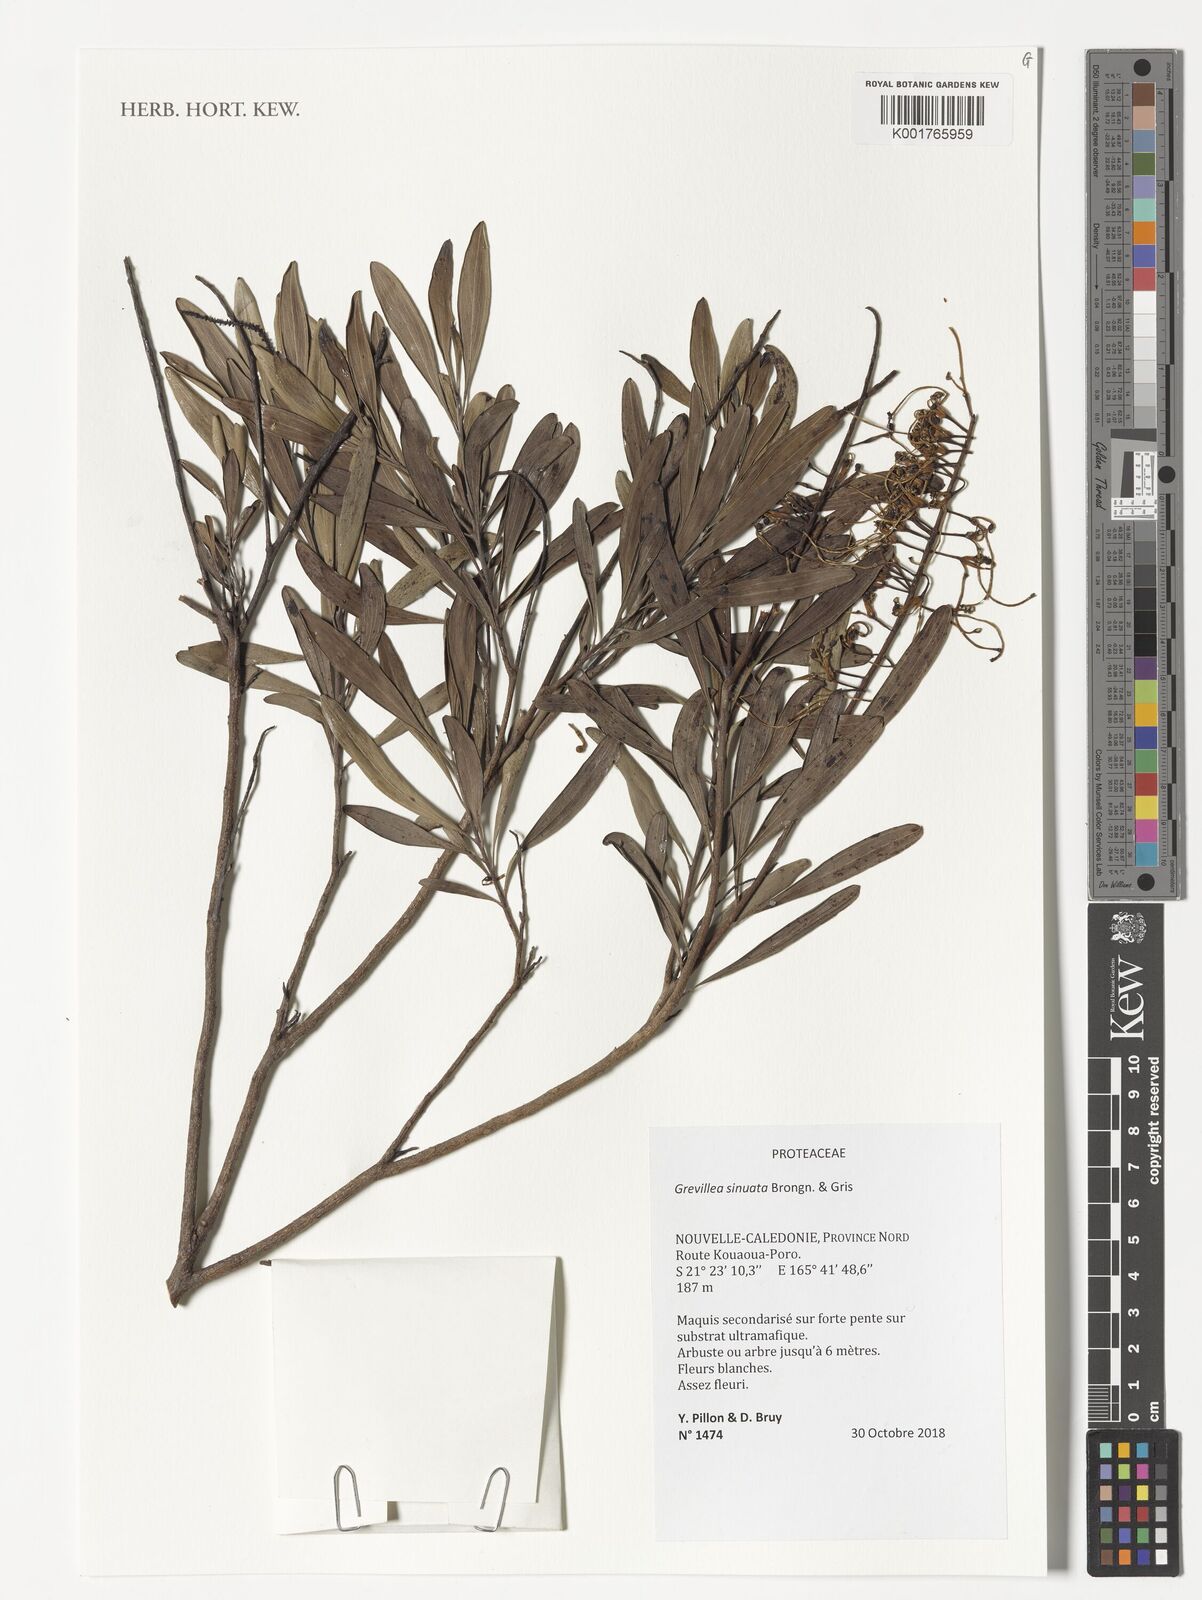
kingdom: Plantae
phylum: Tracheophyta
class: Magnoliopsida
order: Proteales
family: Proteaceae
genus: Grevillea
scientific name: Grevillea exul
